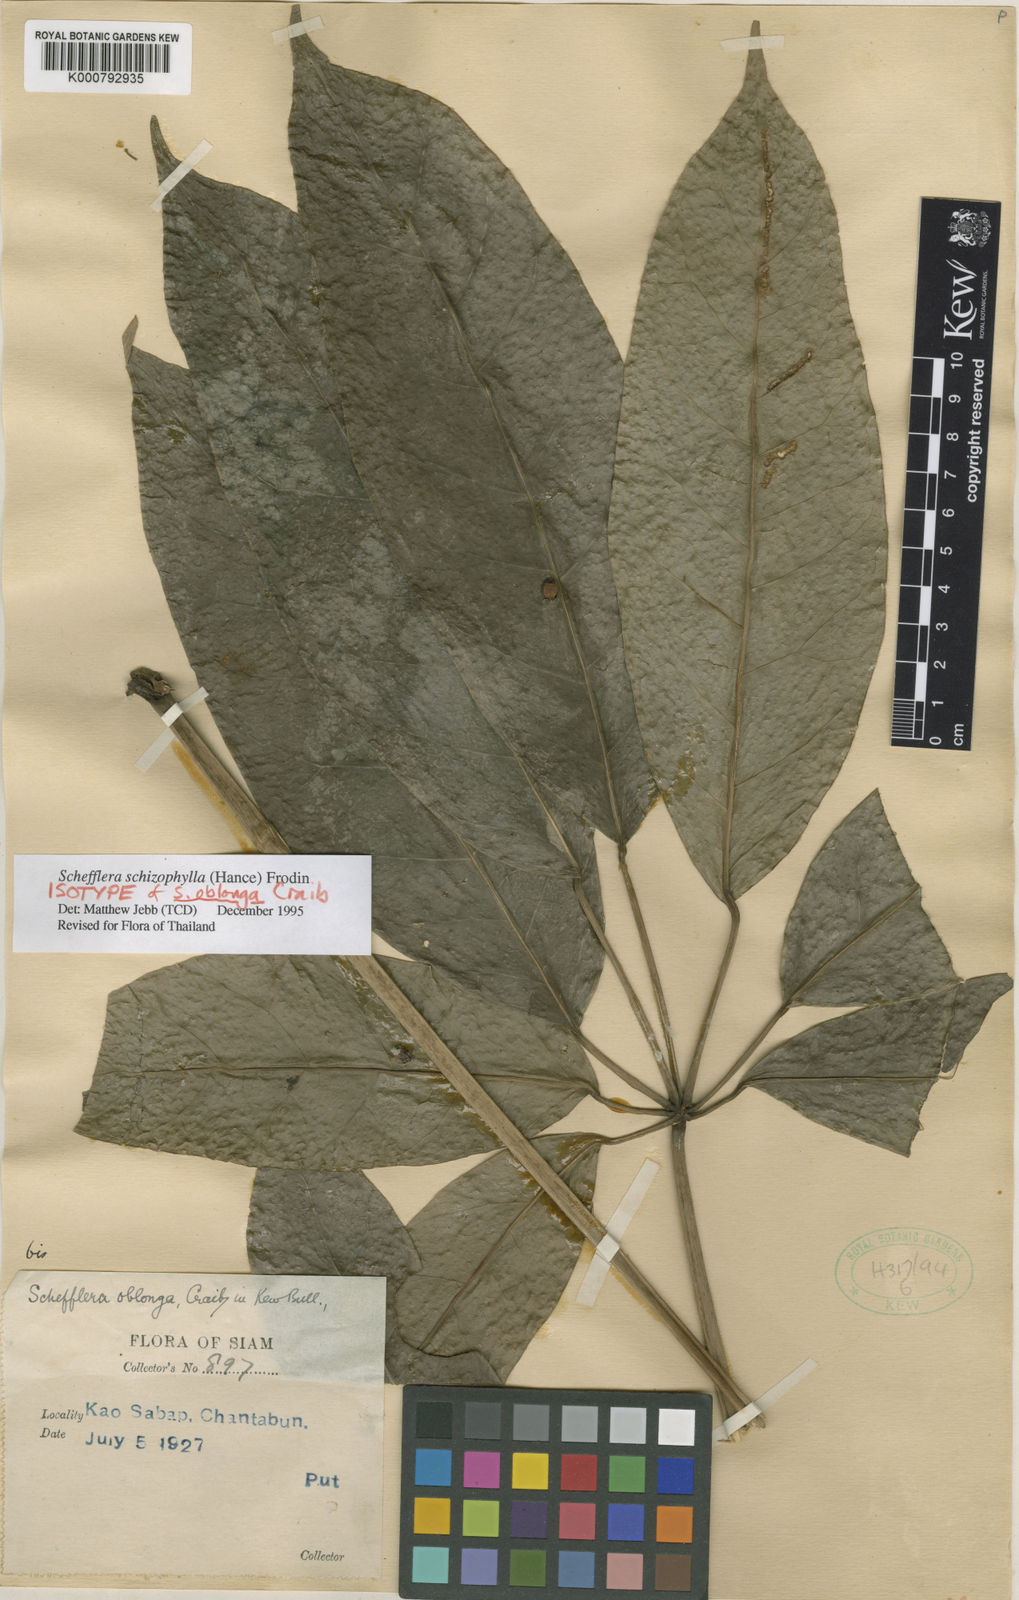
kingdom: Plantae
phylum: Tracheophyta
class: Magnoliopsida
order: Apiales
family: Araliaceae
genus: Heptapleurum
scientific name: Heptapleurum schizophyllum
